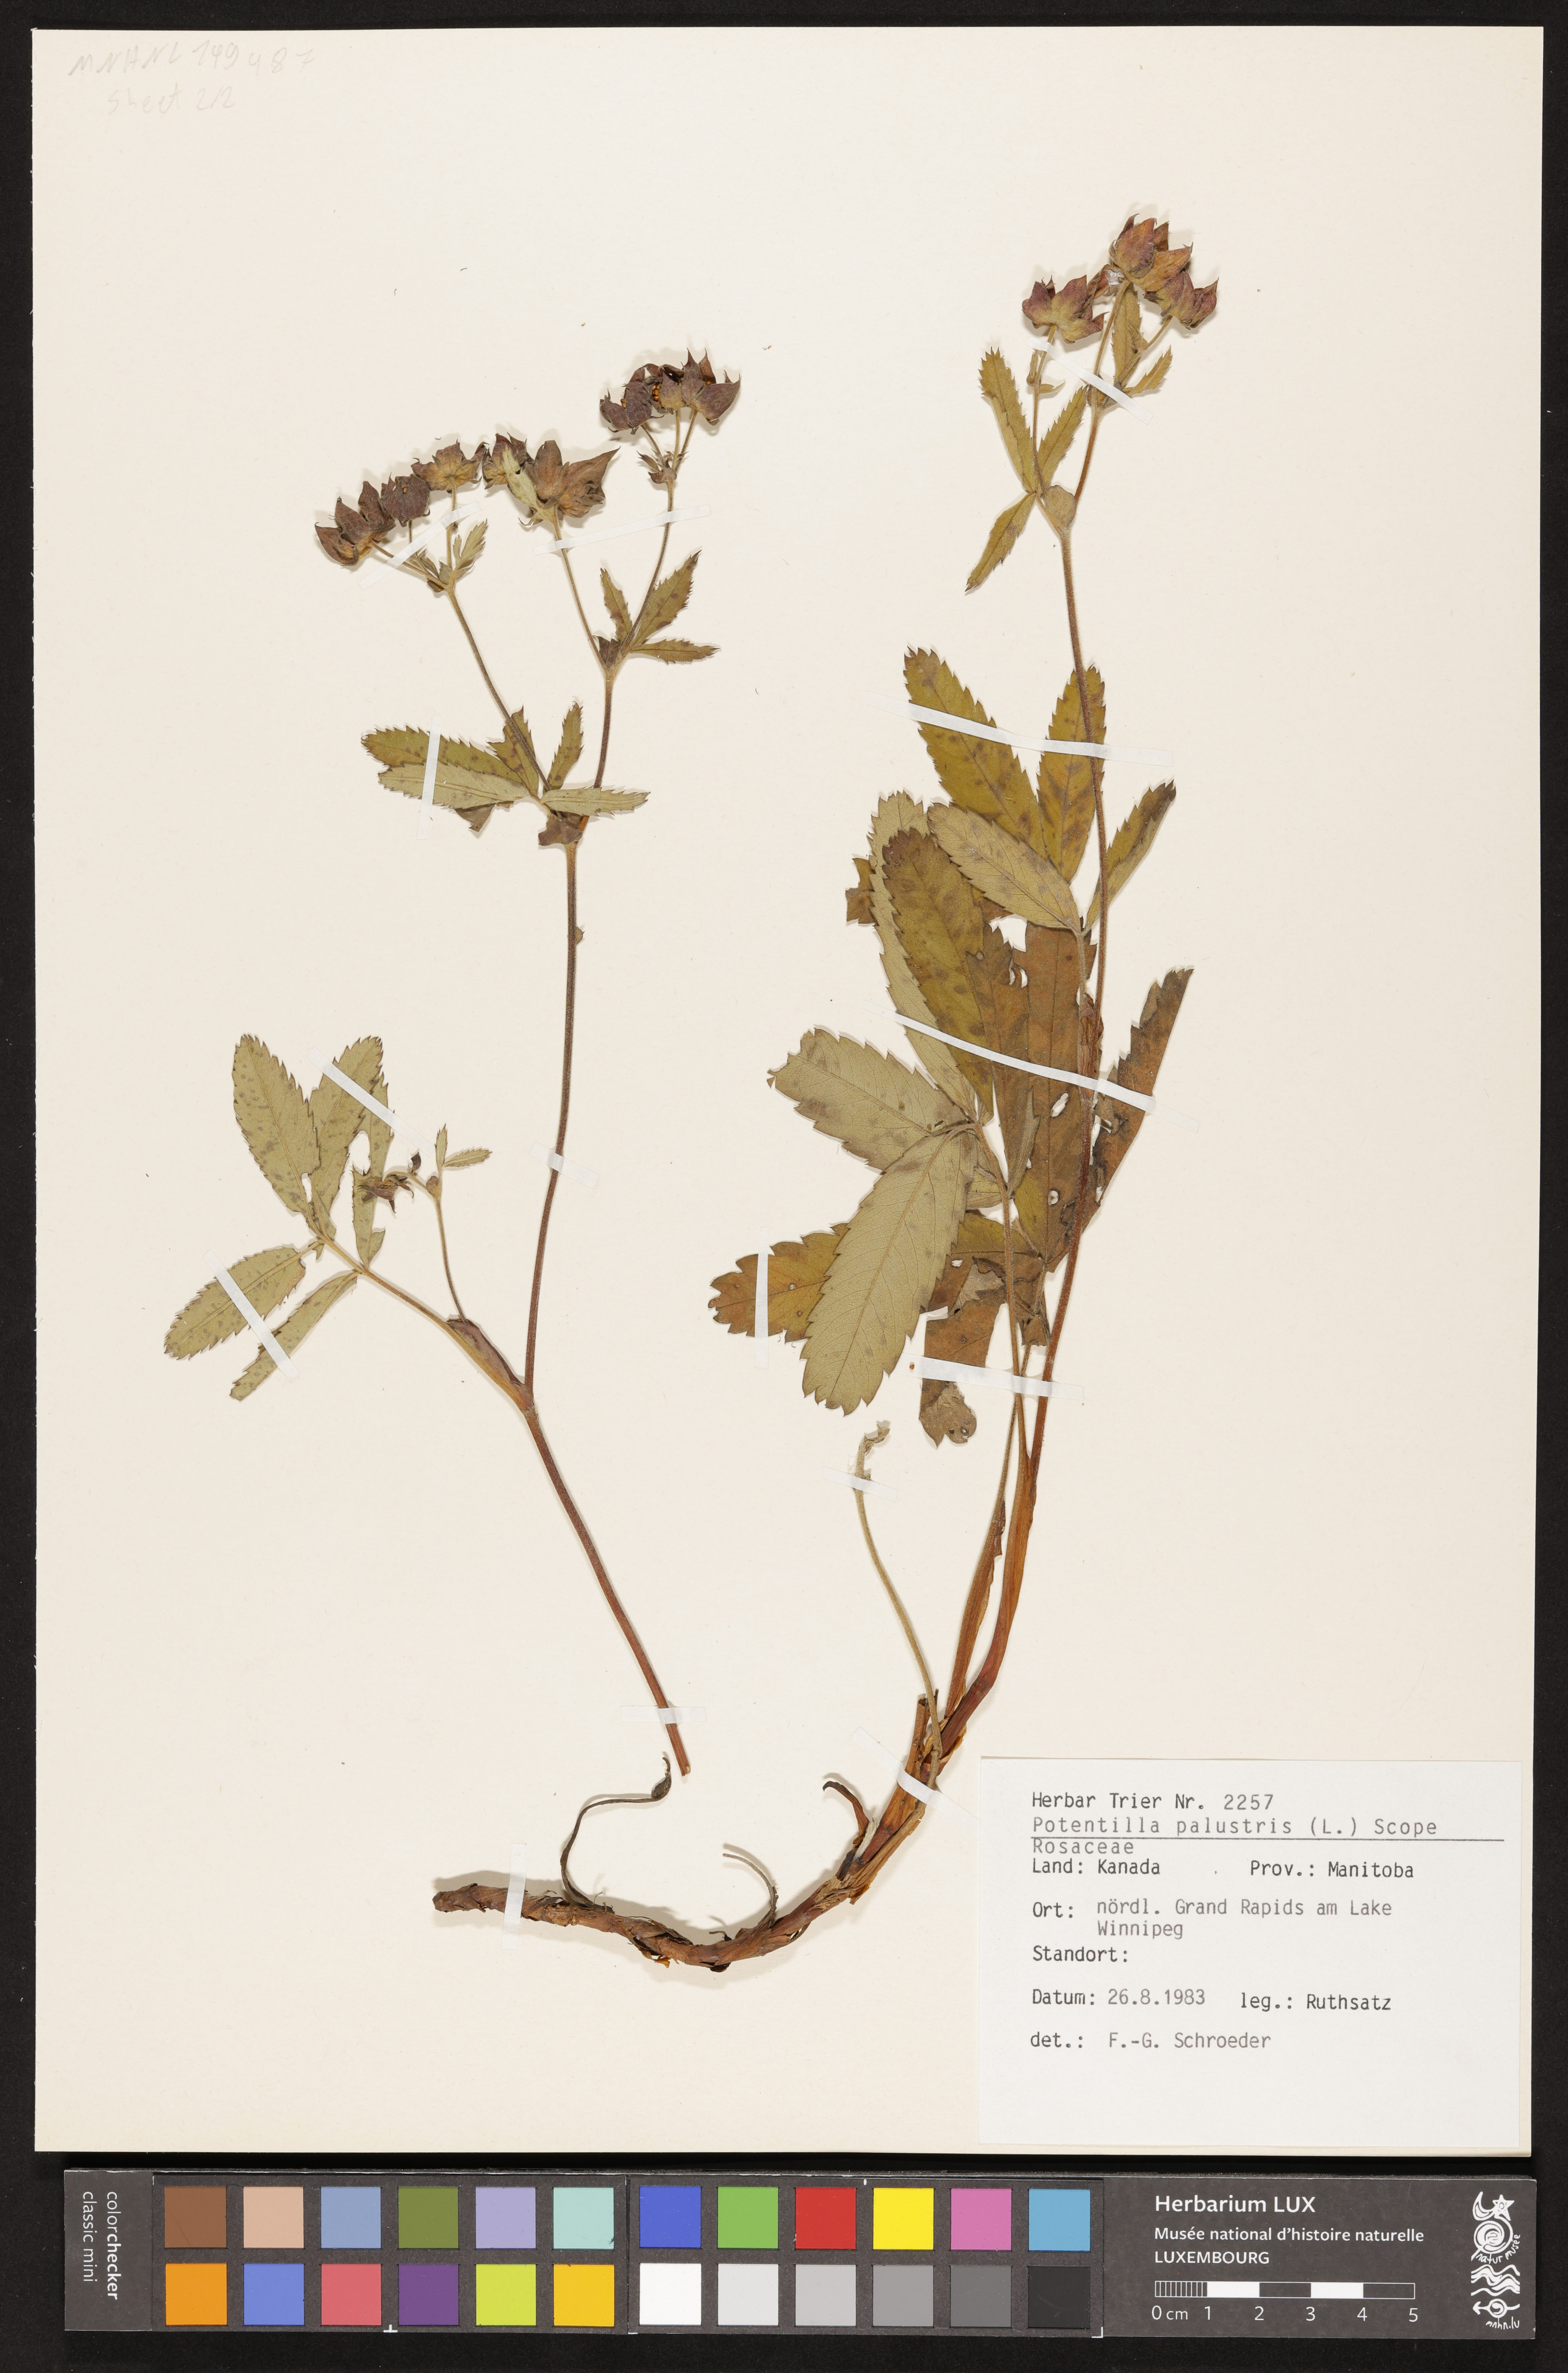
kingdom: Plantae
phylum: Tracheophyta
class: Magnoliopsida
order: Rosales
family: Rosaceae
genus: Comarum
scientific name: Comarum palustre
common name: Marsh cinquefoil
